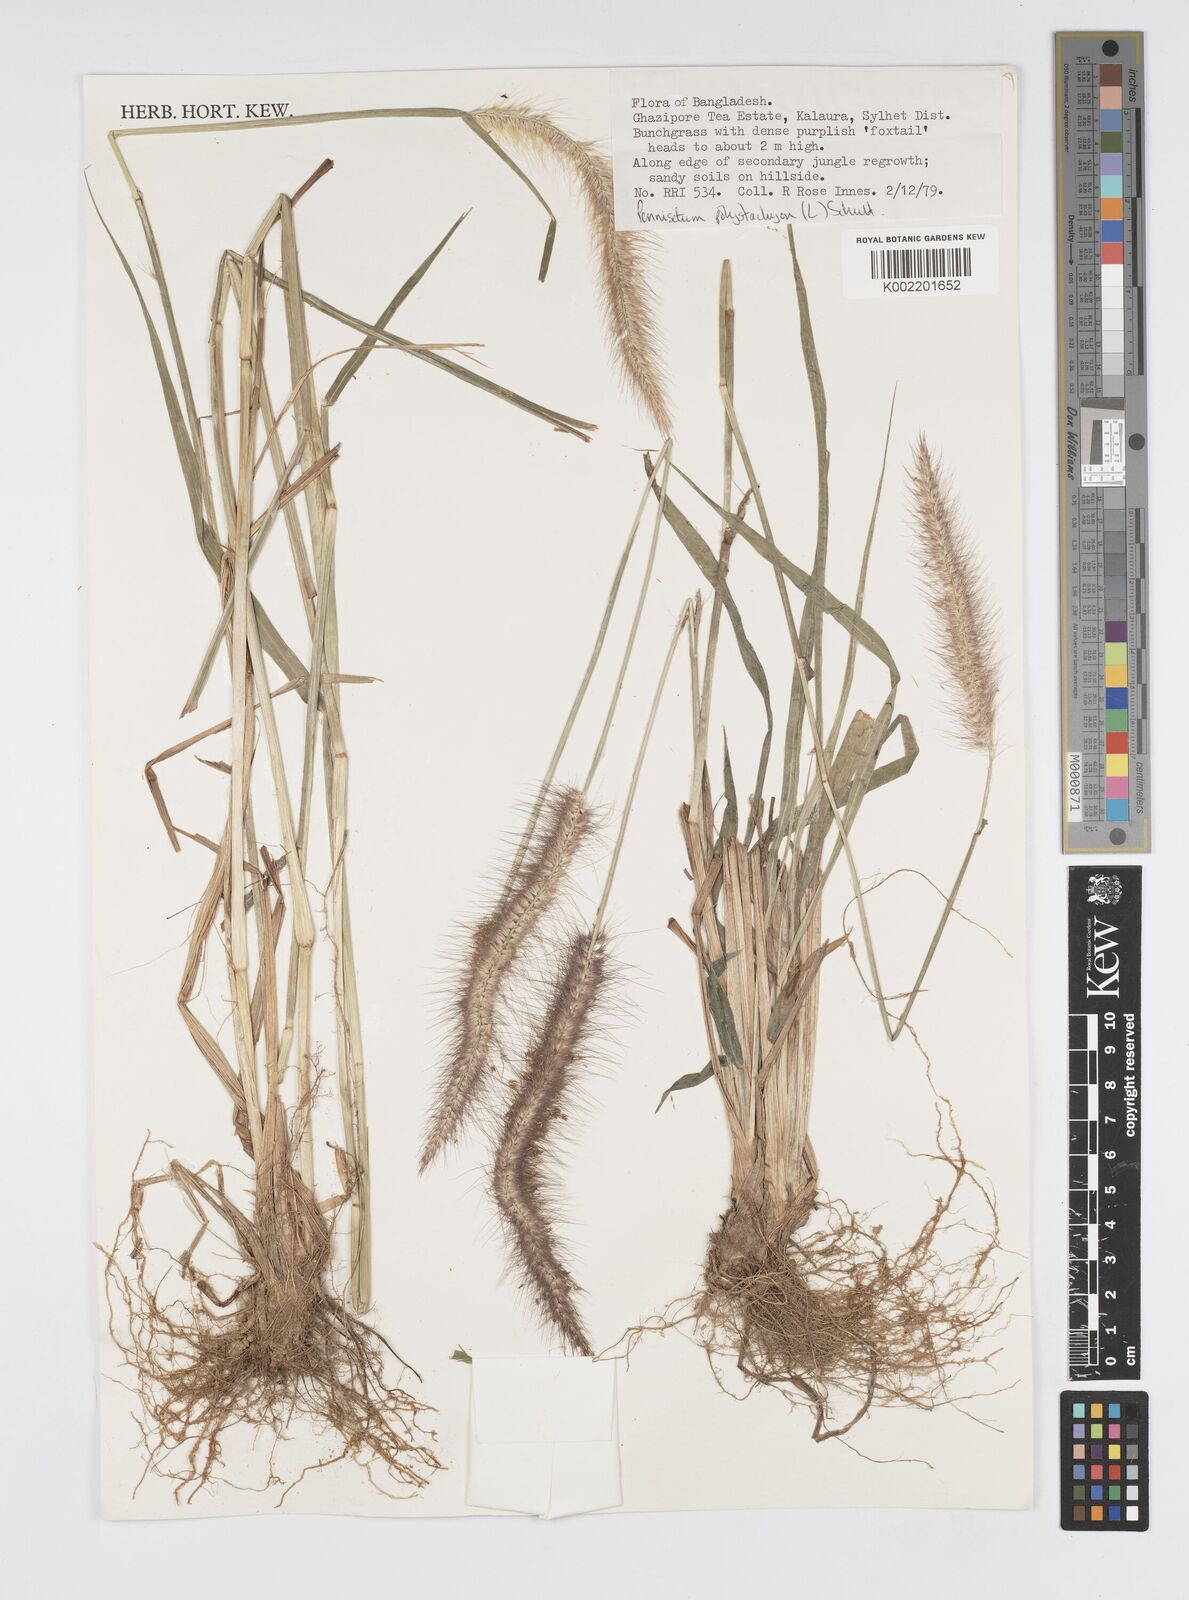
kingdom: Plantae
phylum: Tracheophyta
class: Liliopsida
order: Poales
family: Poaceae
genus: Setaria
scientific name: Setaria parviflora
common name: Knotroot bristle-grass
